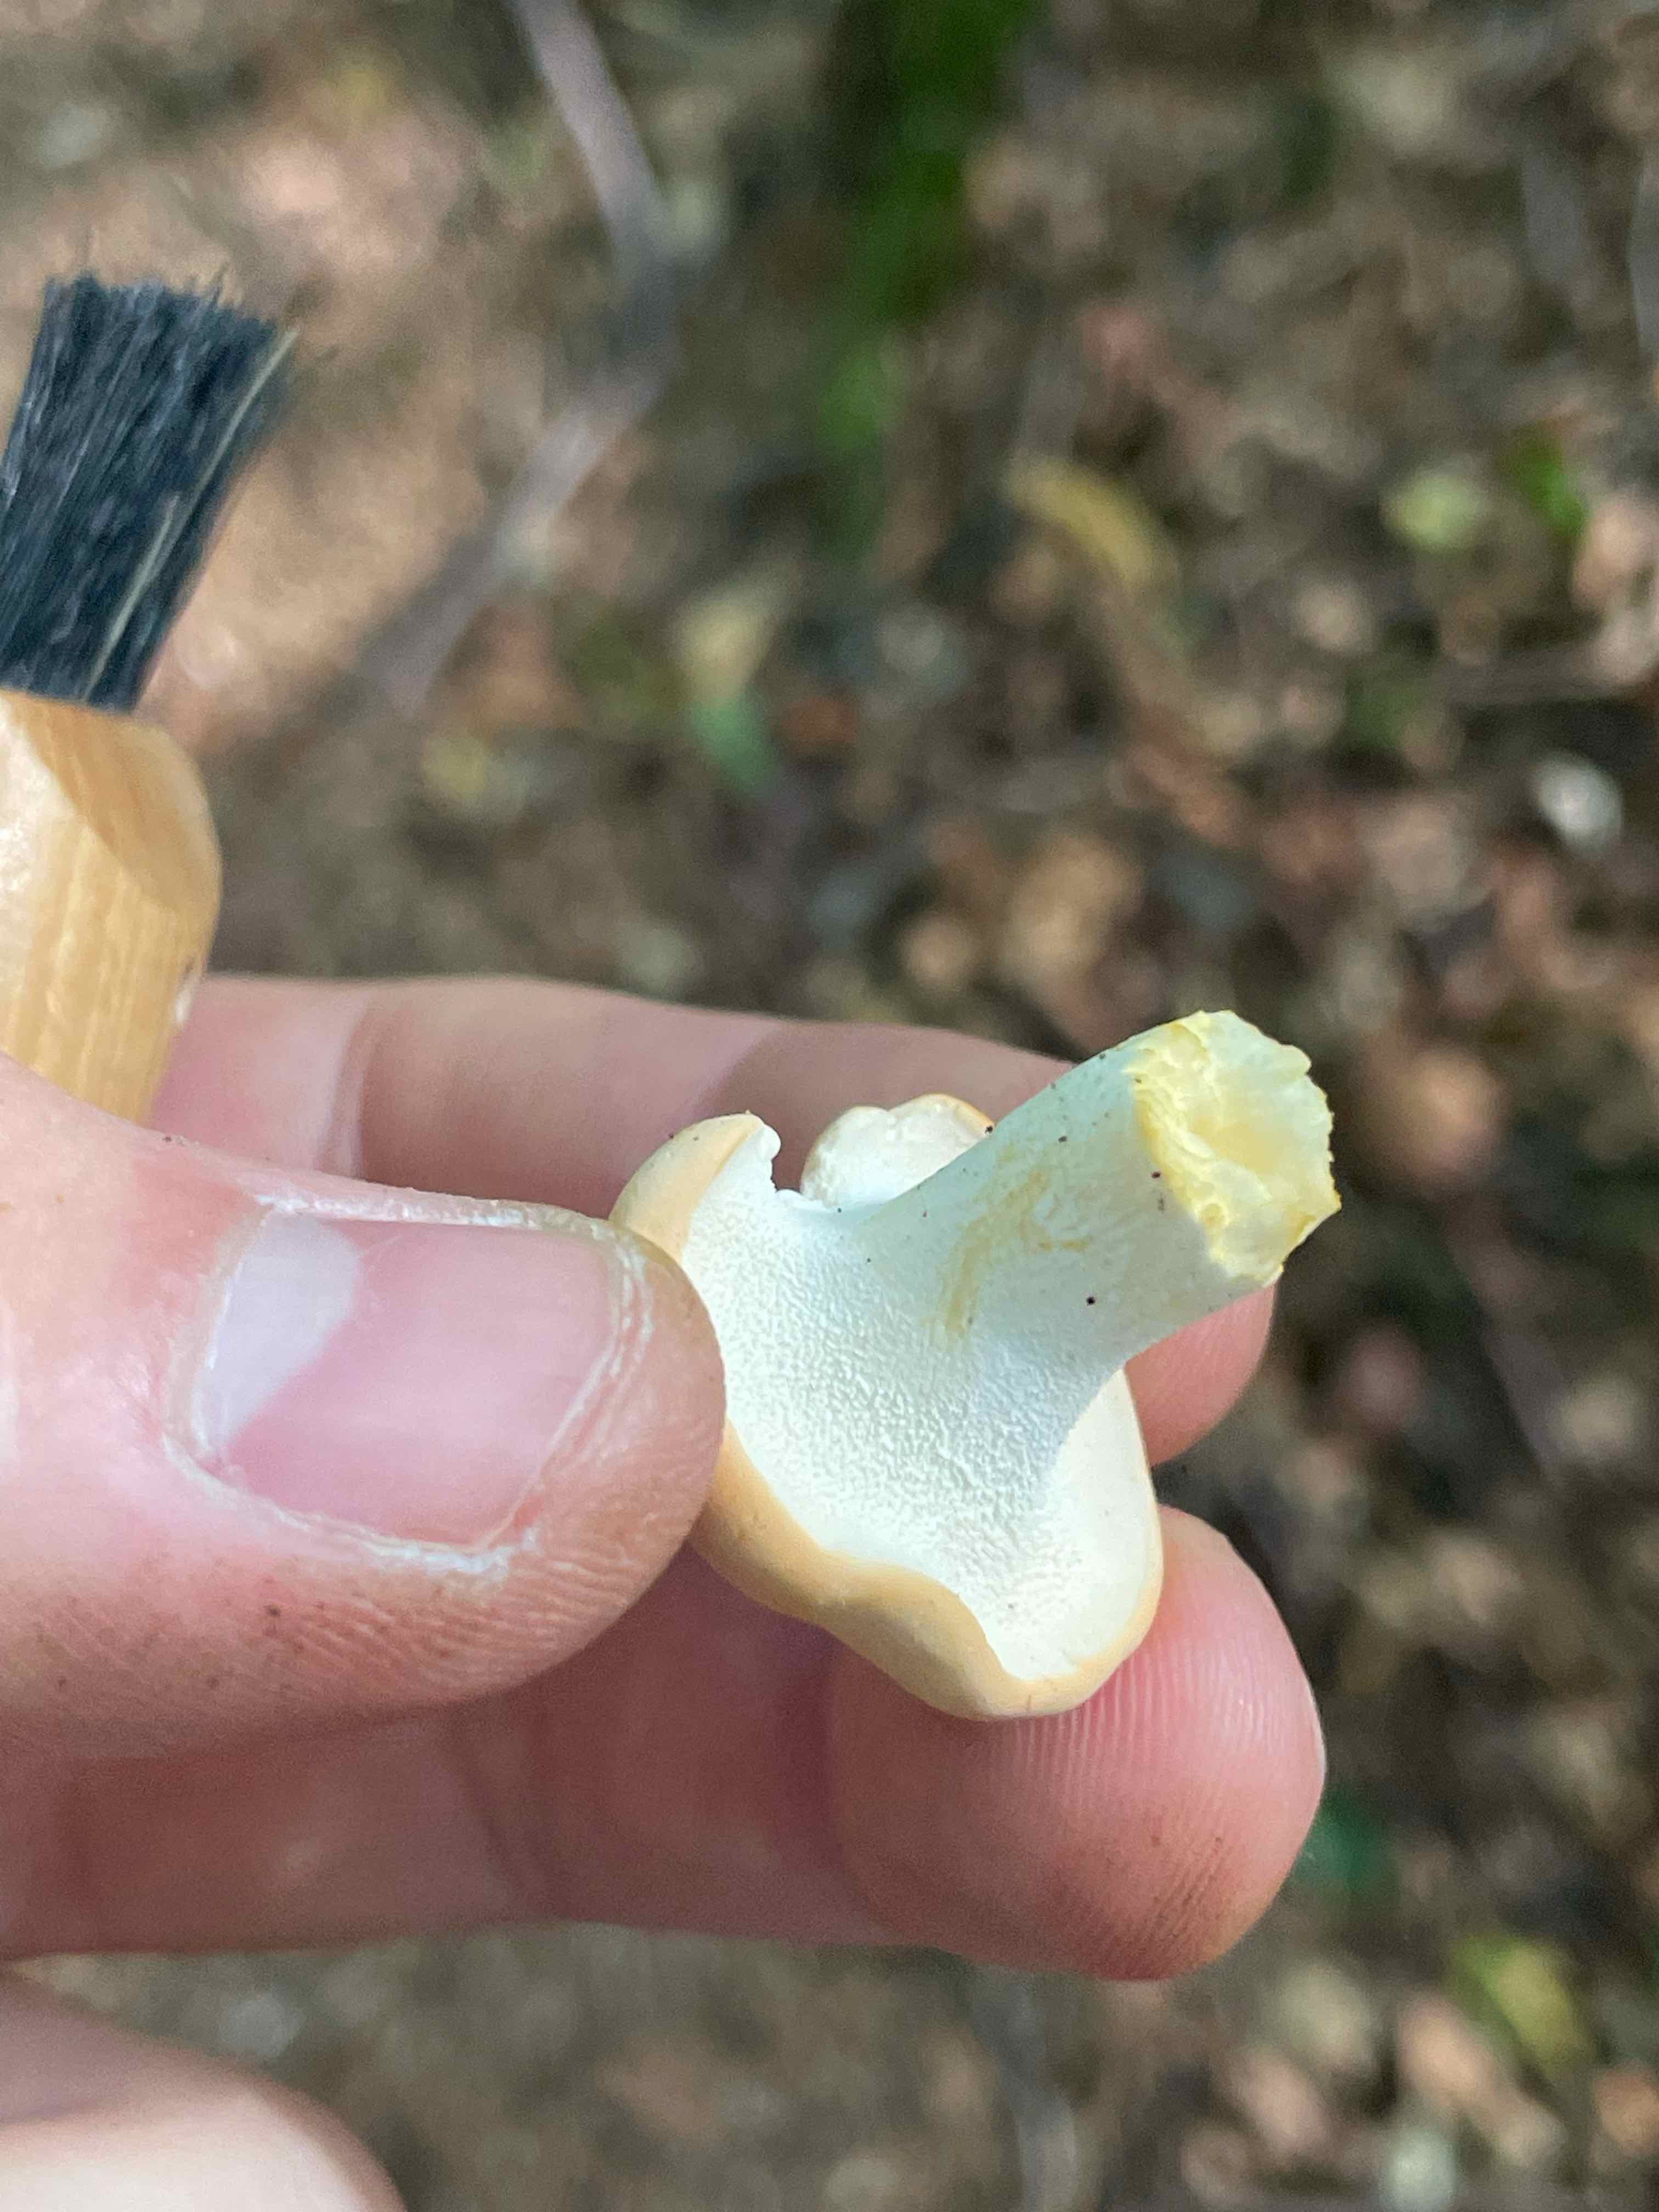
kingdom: Fungi
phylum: Basidiomycota
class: Agaricomycetes
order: Cantharellales
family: Hydnaceae
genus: Hydnum
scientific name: Hydnum
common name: pigsvamp
